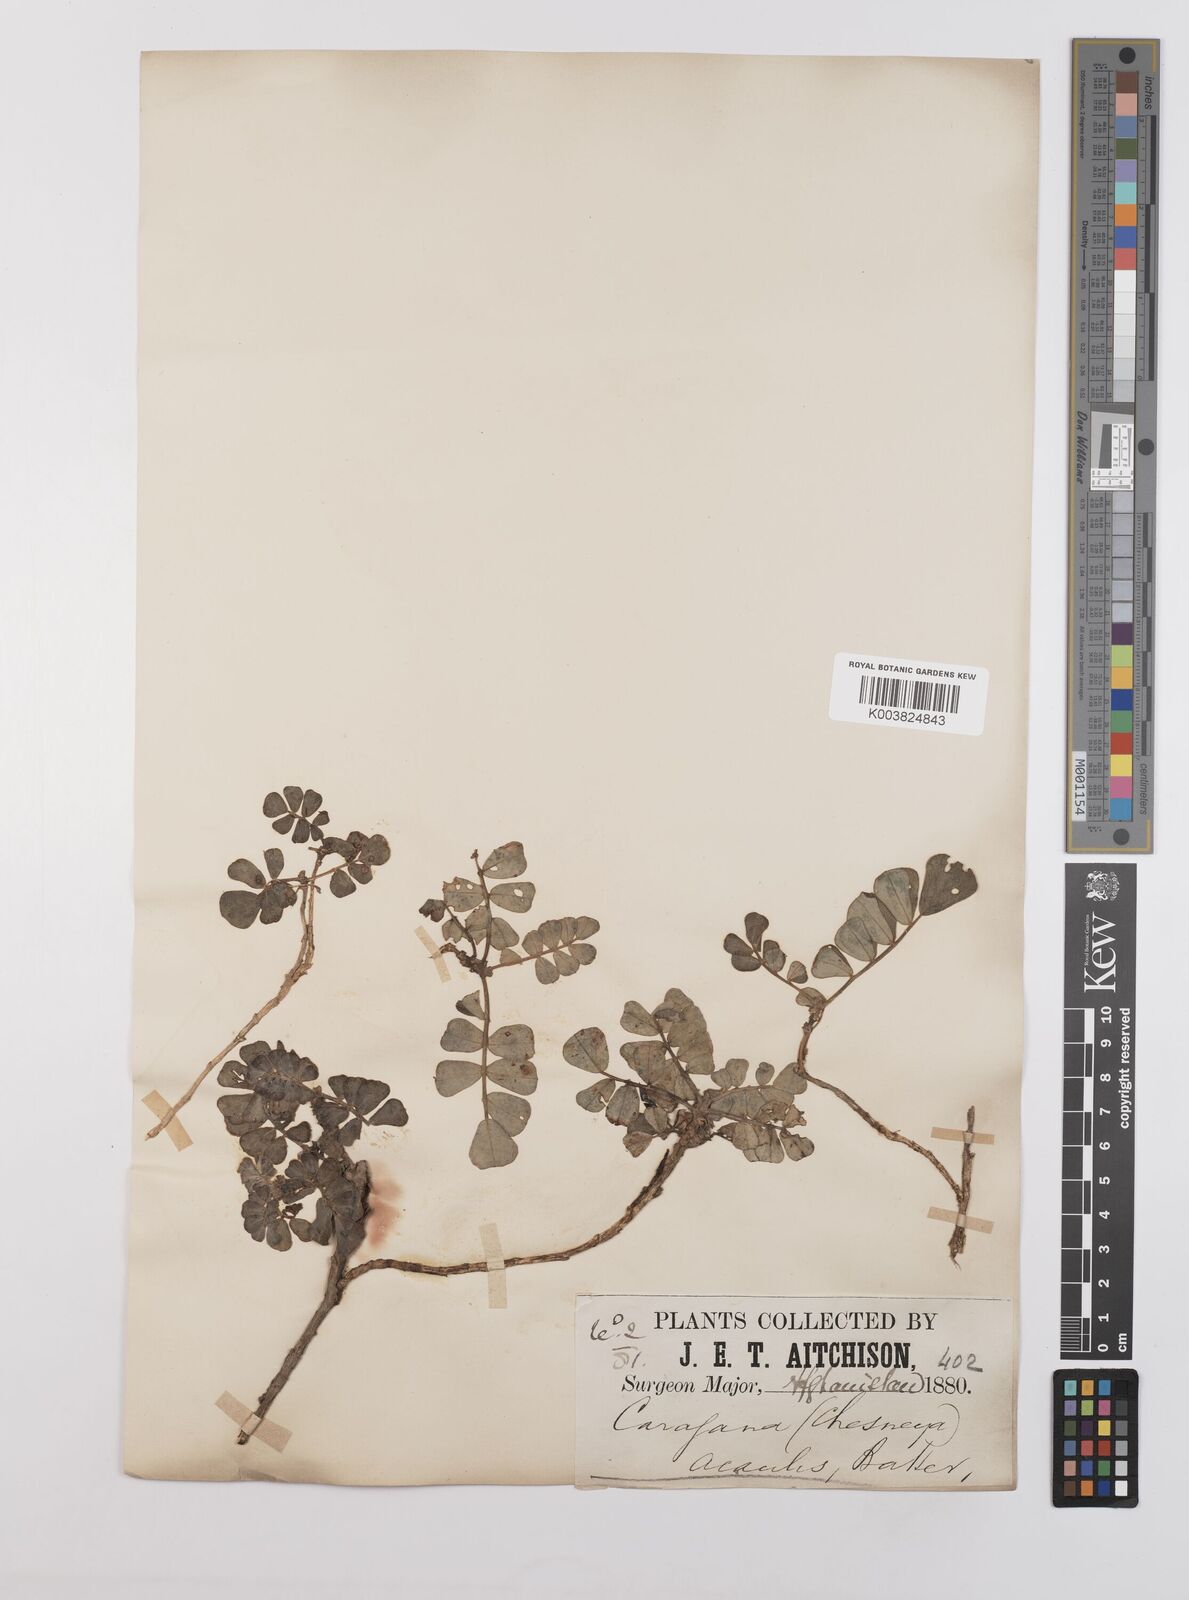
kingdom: Plantae
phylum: Tracheophyta
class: Magnoliopsida
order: Fabales
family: Fabaceae
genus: Chesneya
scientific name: Chesneya acaulis
